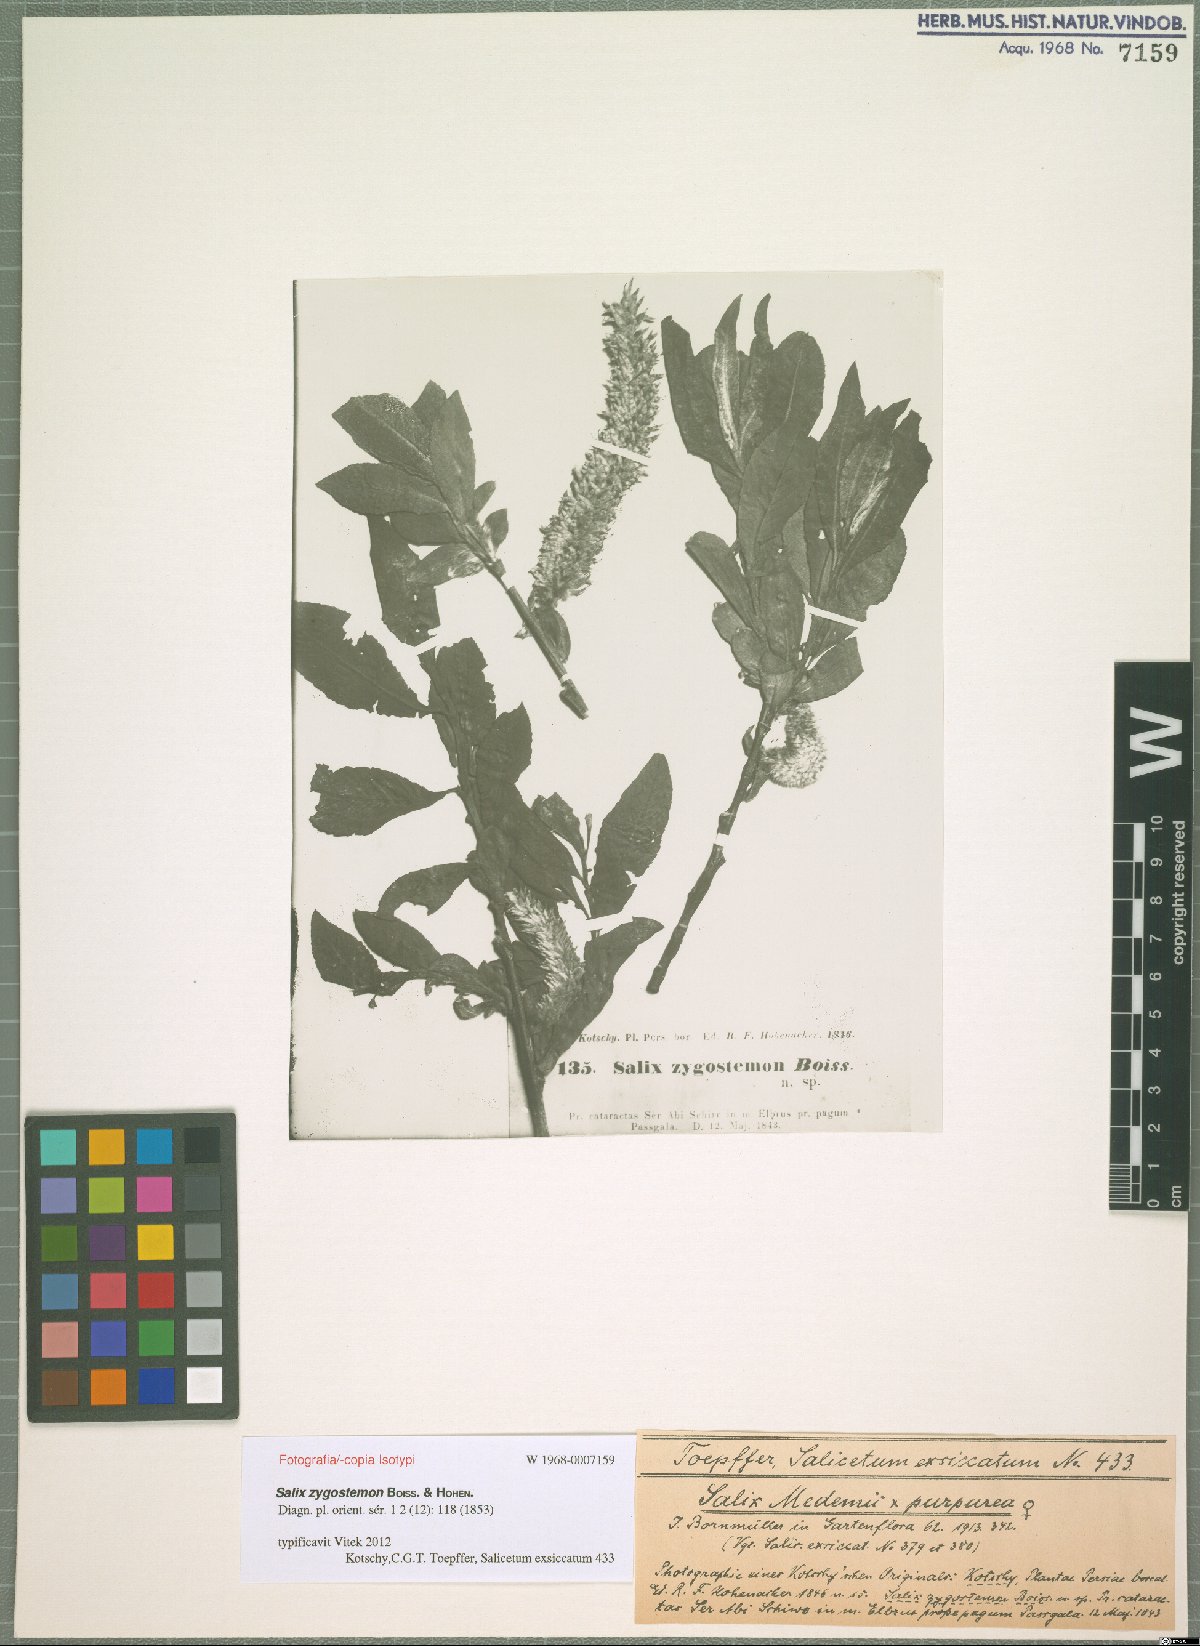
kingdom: Plantae
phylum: Tracheophyta
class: Magnoliopsida
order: Malpighiales
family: Salicaceae
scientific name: Salicaceae
